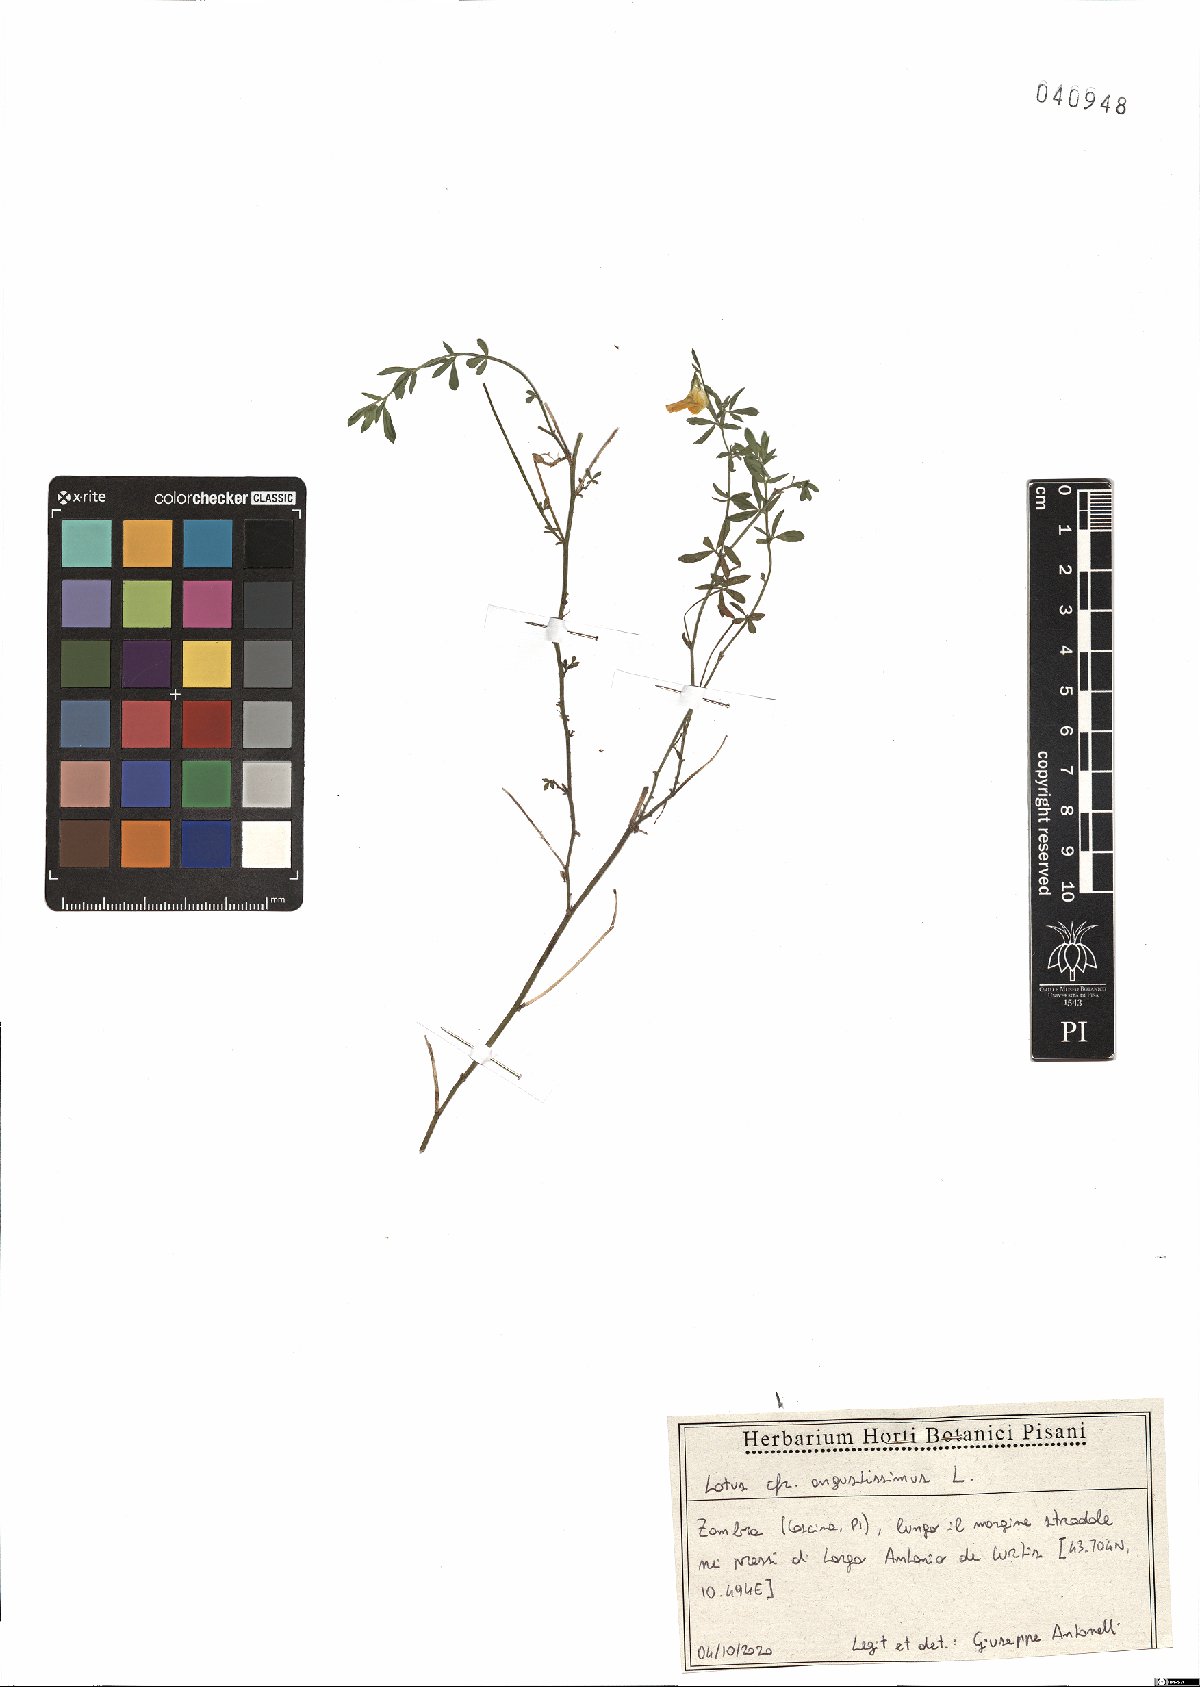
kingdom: Plantae
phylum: Tracheophyta
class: Magnoliopsida
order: Fabales
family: Fabaceae
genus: Lotus
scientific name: Lotus angustissimus
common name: Slender bird's-foot trefoil
